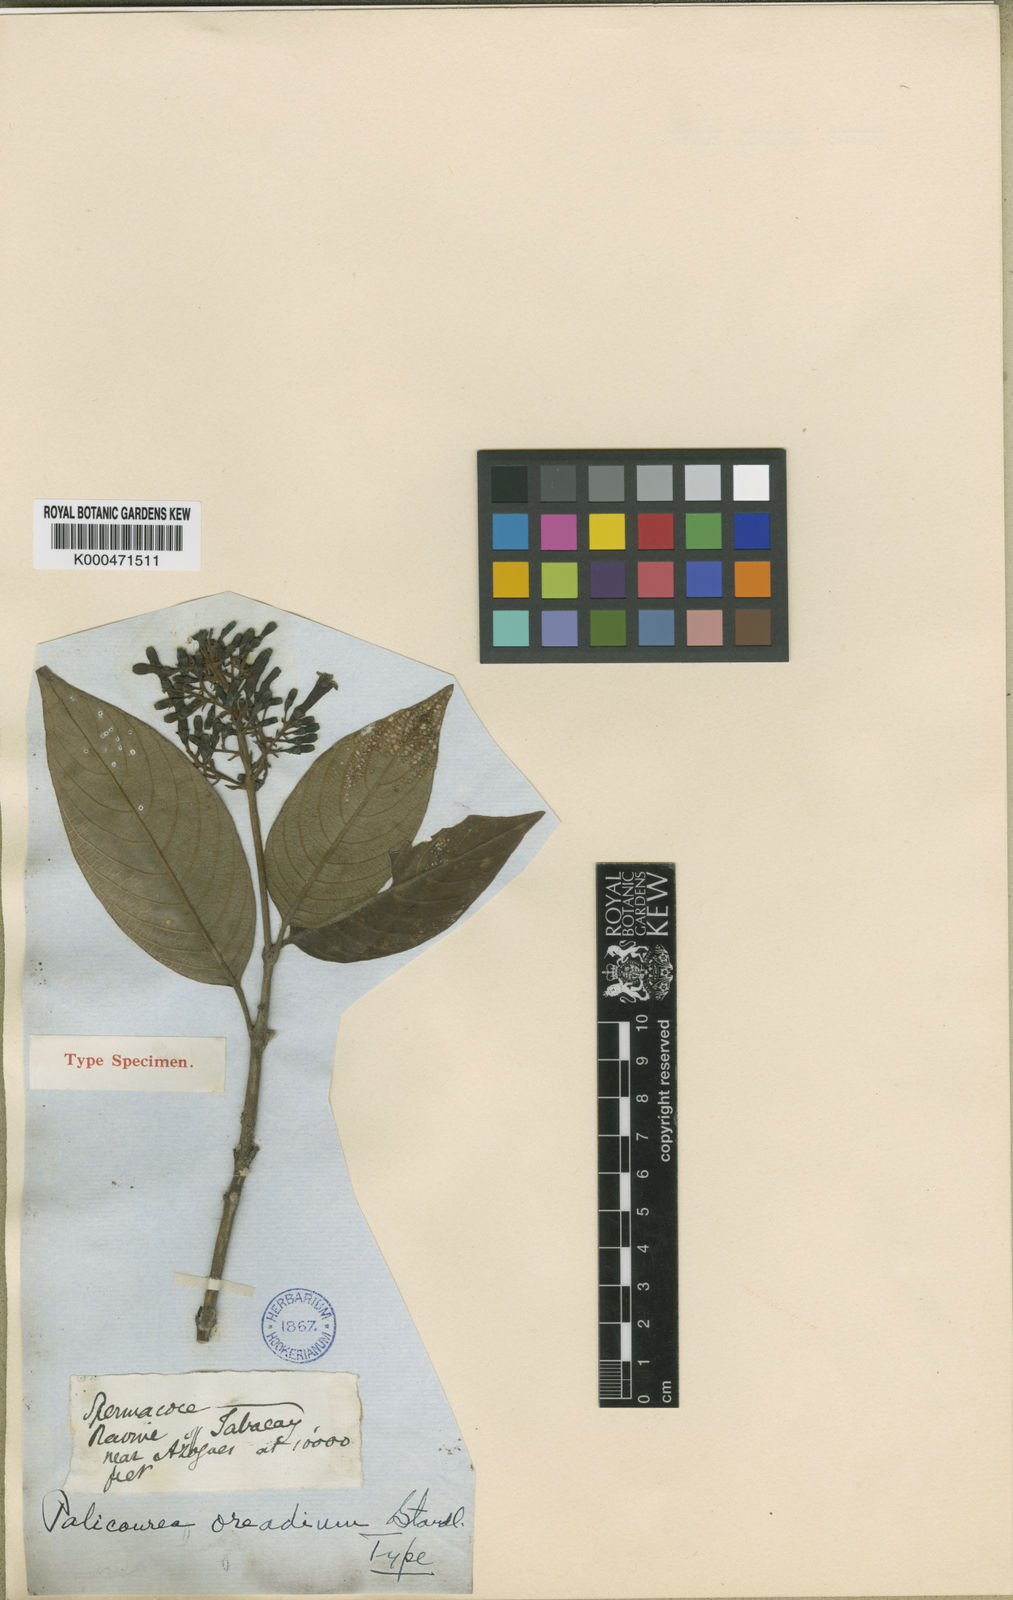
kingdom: Plantae
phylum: Tracheophyta
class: Magnoliopsida
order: Gentianales
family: Rubiaceae
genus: Palicourea
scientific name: Palicourea lineata
